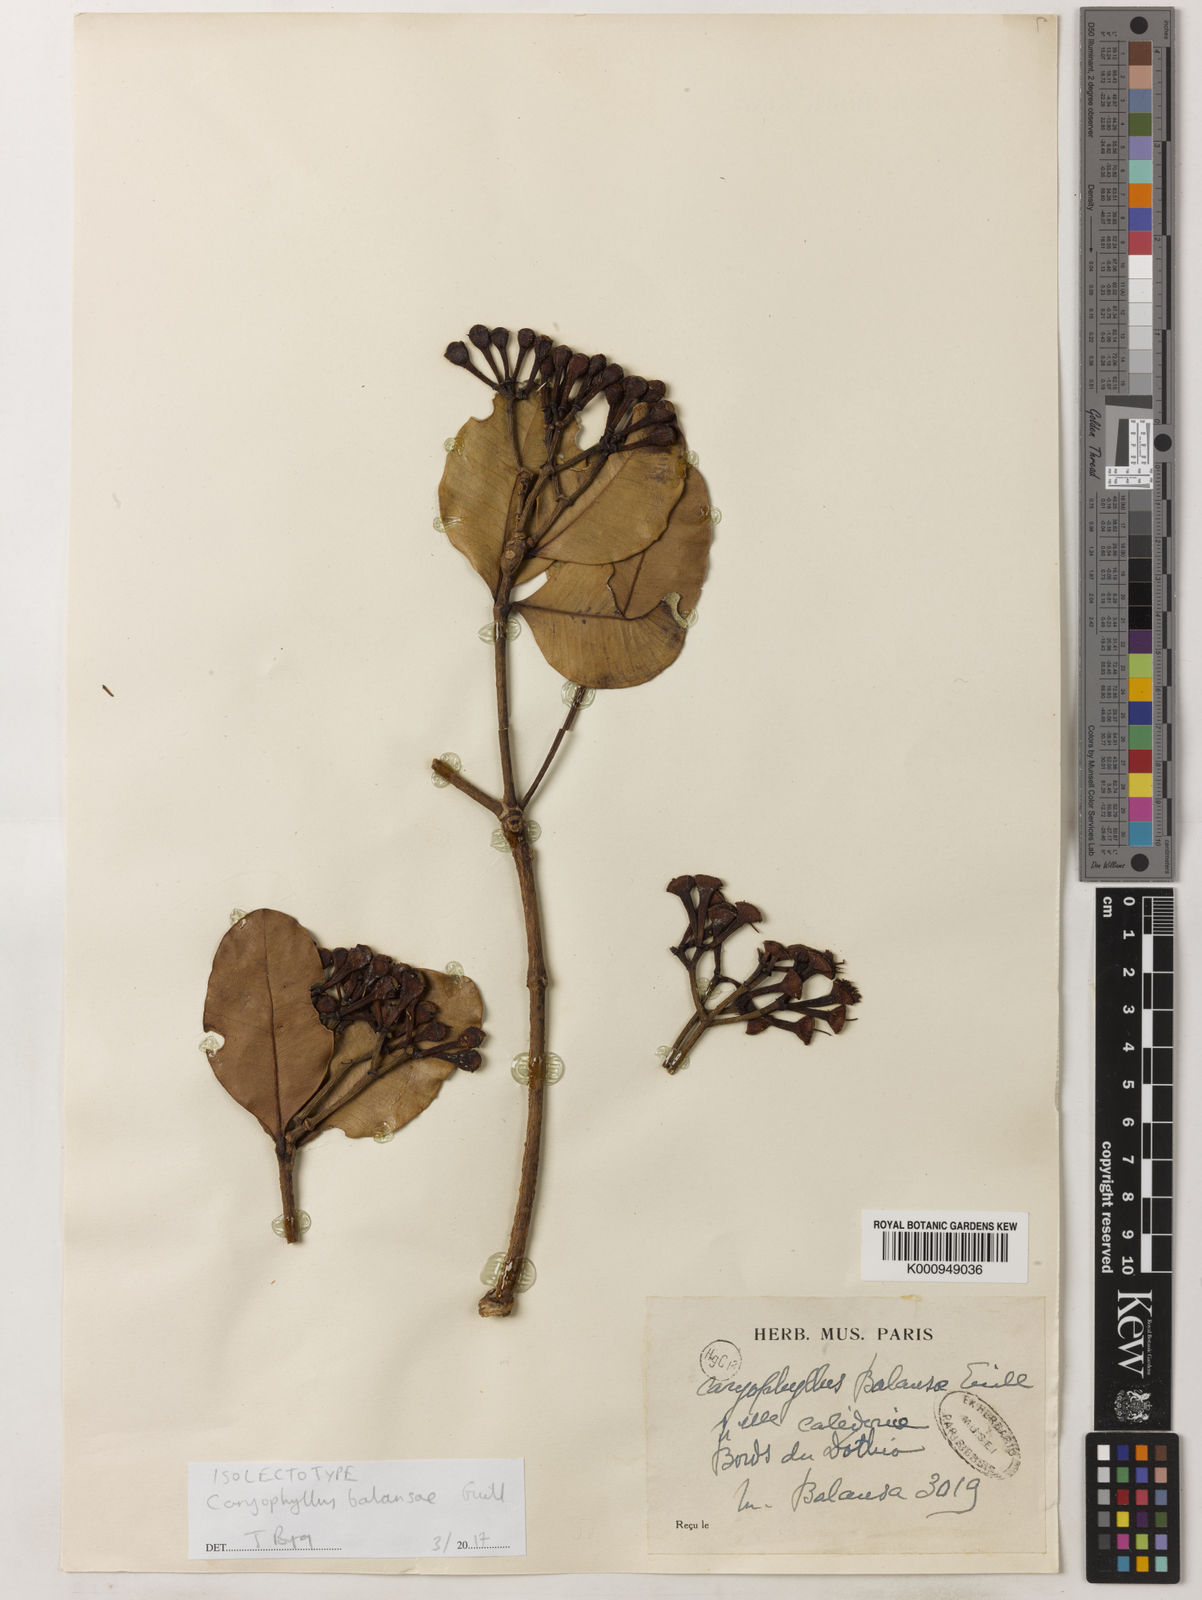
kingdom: Plantae
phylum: Tracheophyta
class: Magnoliopsida
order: Myrtales
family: Myrtaceae
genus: Syzygium
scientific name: Syzygium balansae
